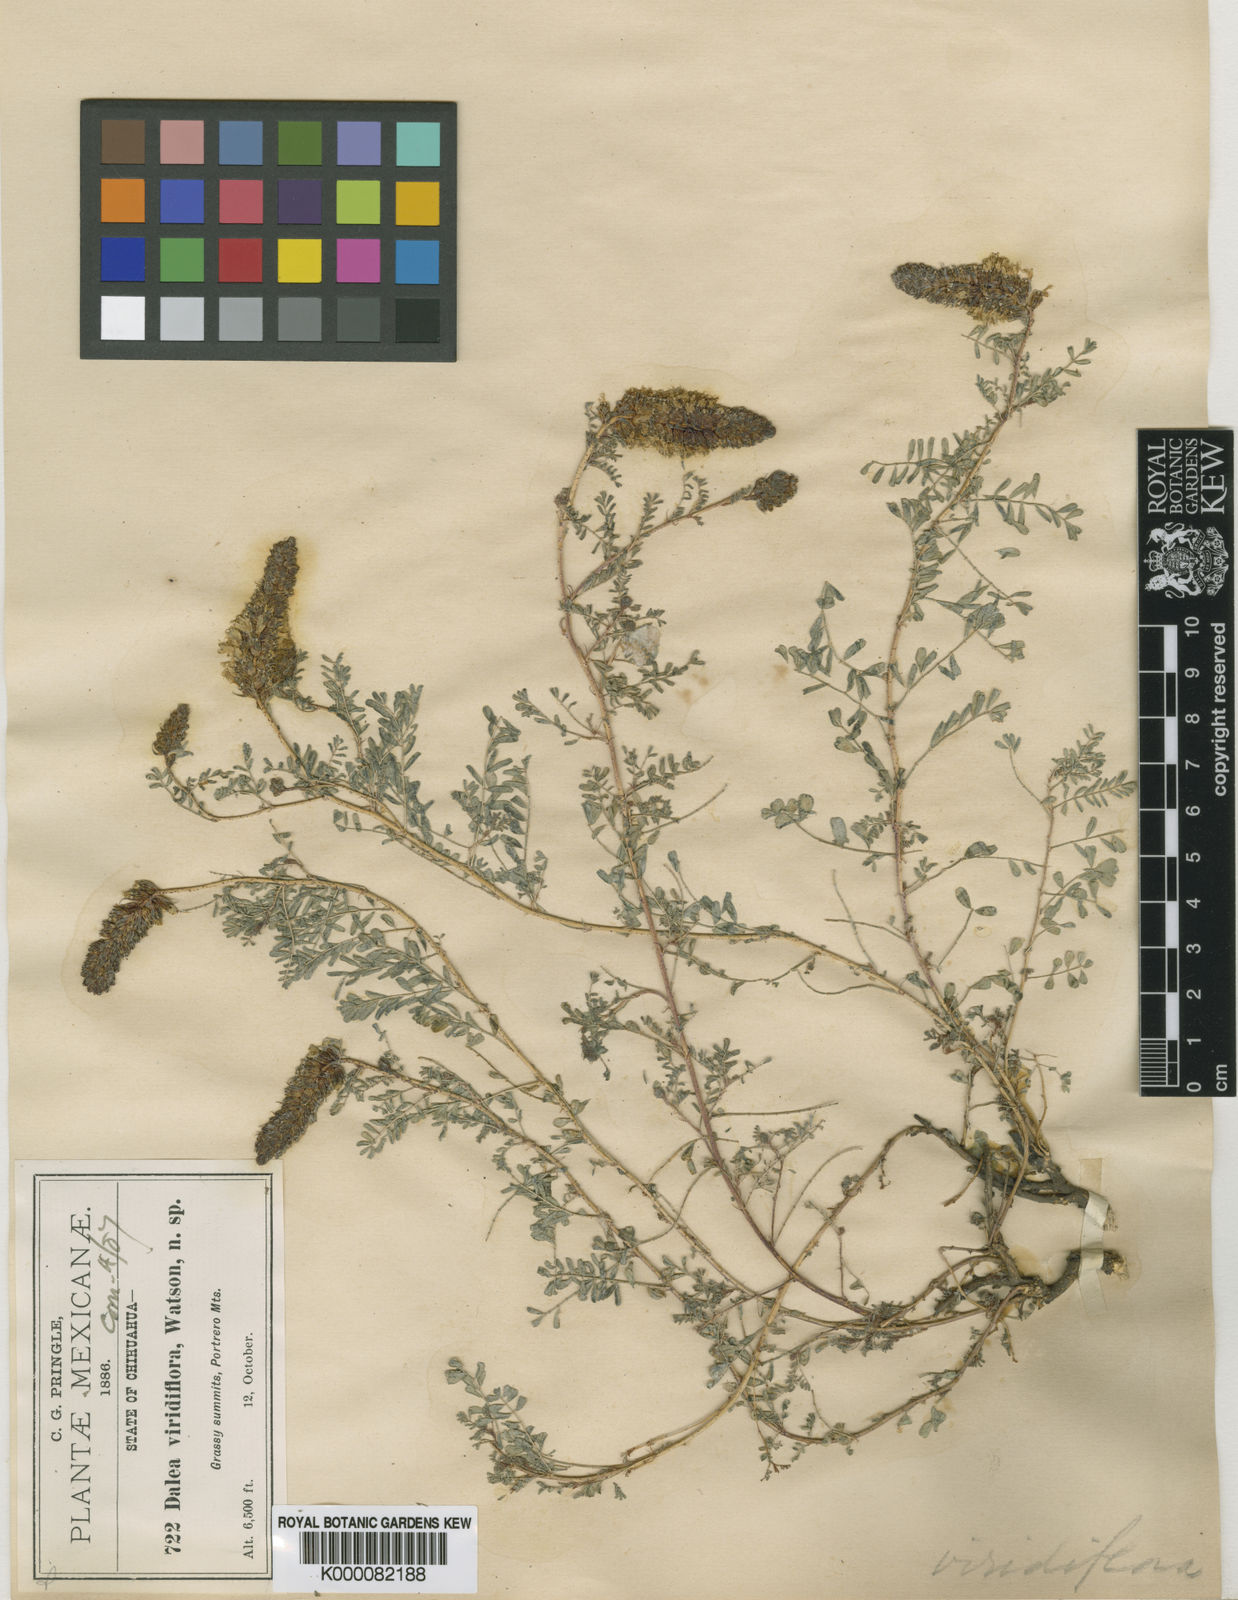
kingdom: Plantae
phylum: Tracheophyta
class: Magnoliopsida
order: Fabales
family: Fabaceae
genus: Dalea
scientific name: Dalea viridiflora
